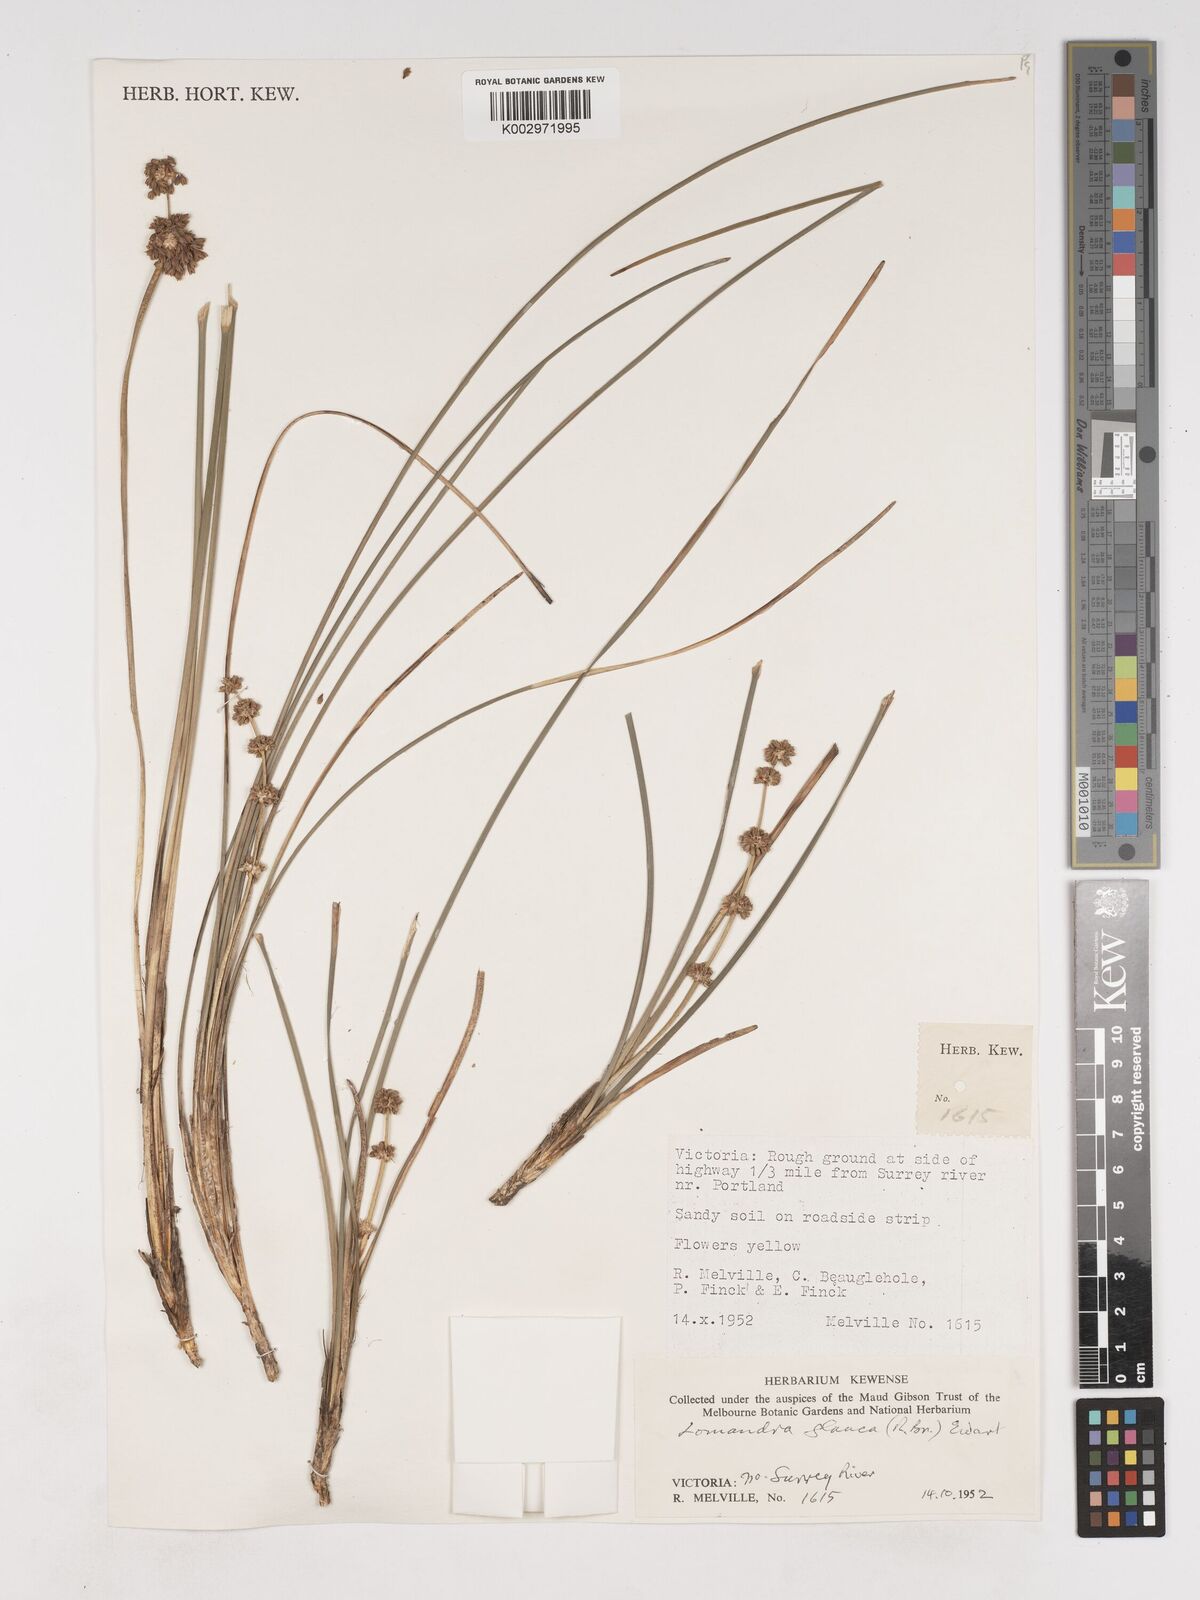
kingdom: Plantae
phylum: Tracheophyta
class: Liliopsida
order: Asparagales
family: Asparagaceae
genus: Lomandra
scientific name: Lomandra glauca
